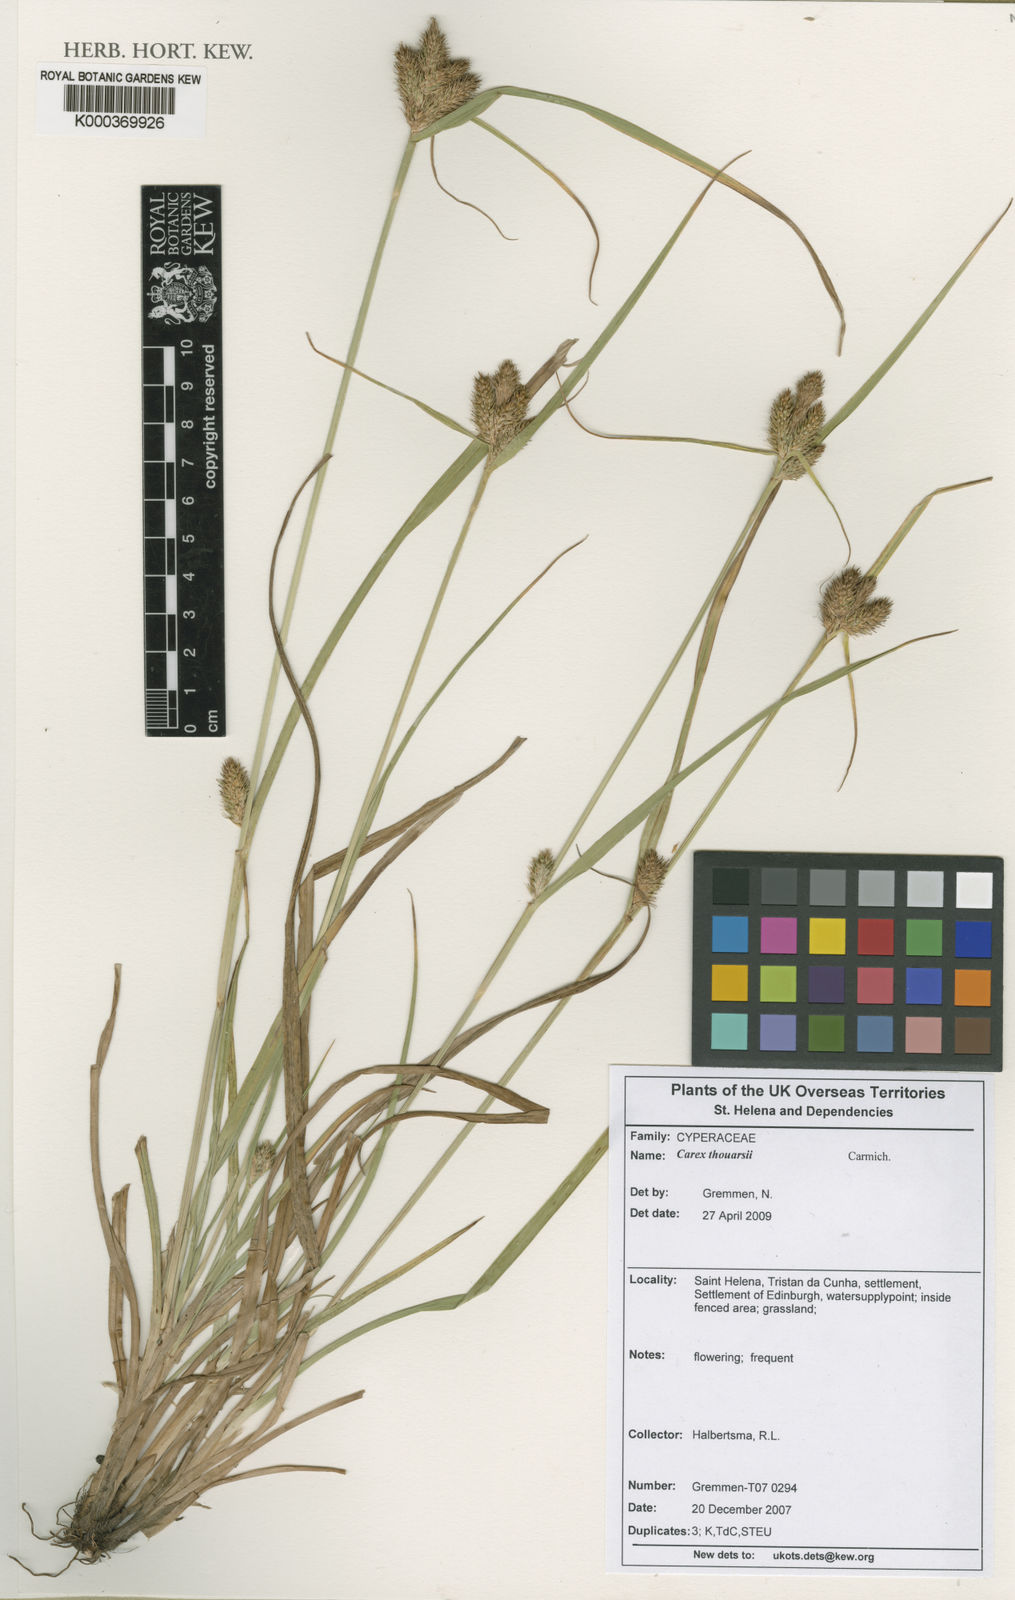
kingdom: Plantae
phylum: Tracheophyta
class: Liliopsida
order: Poales
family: Cyperaceae
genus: Carex
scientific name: Carex thouarsii
